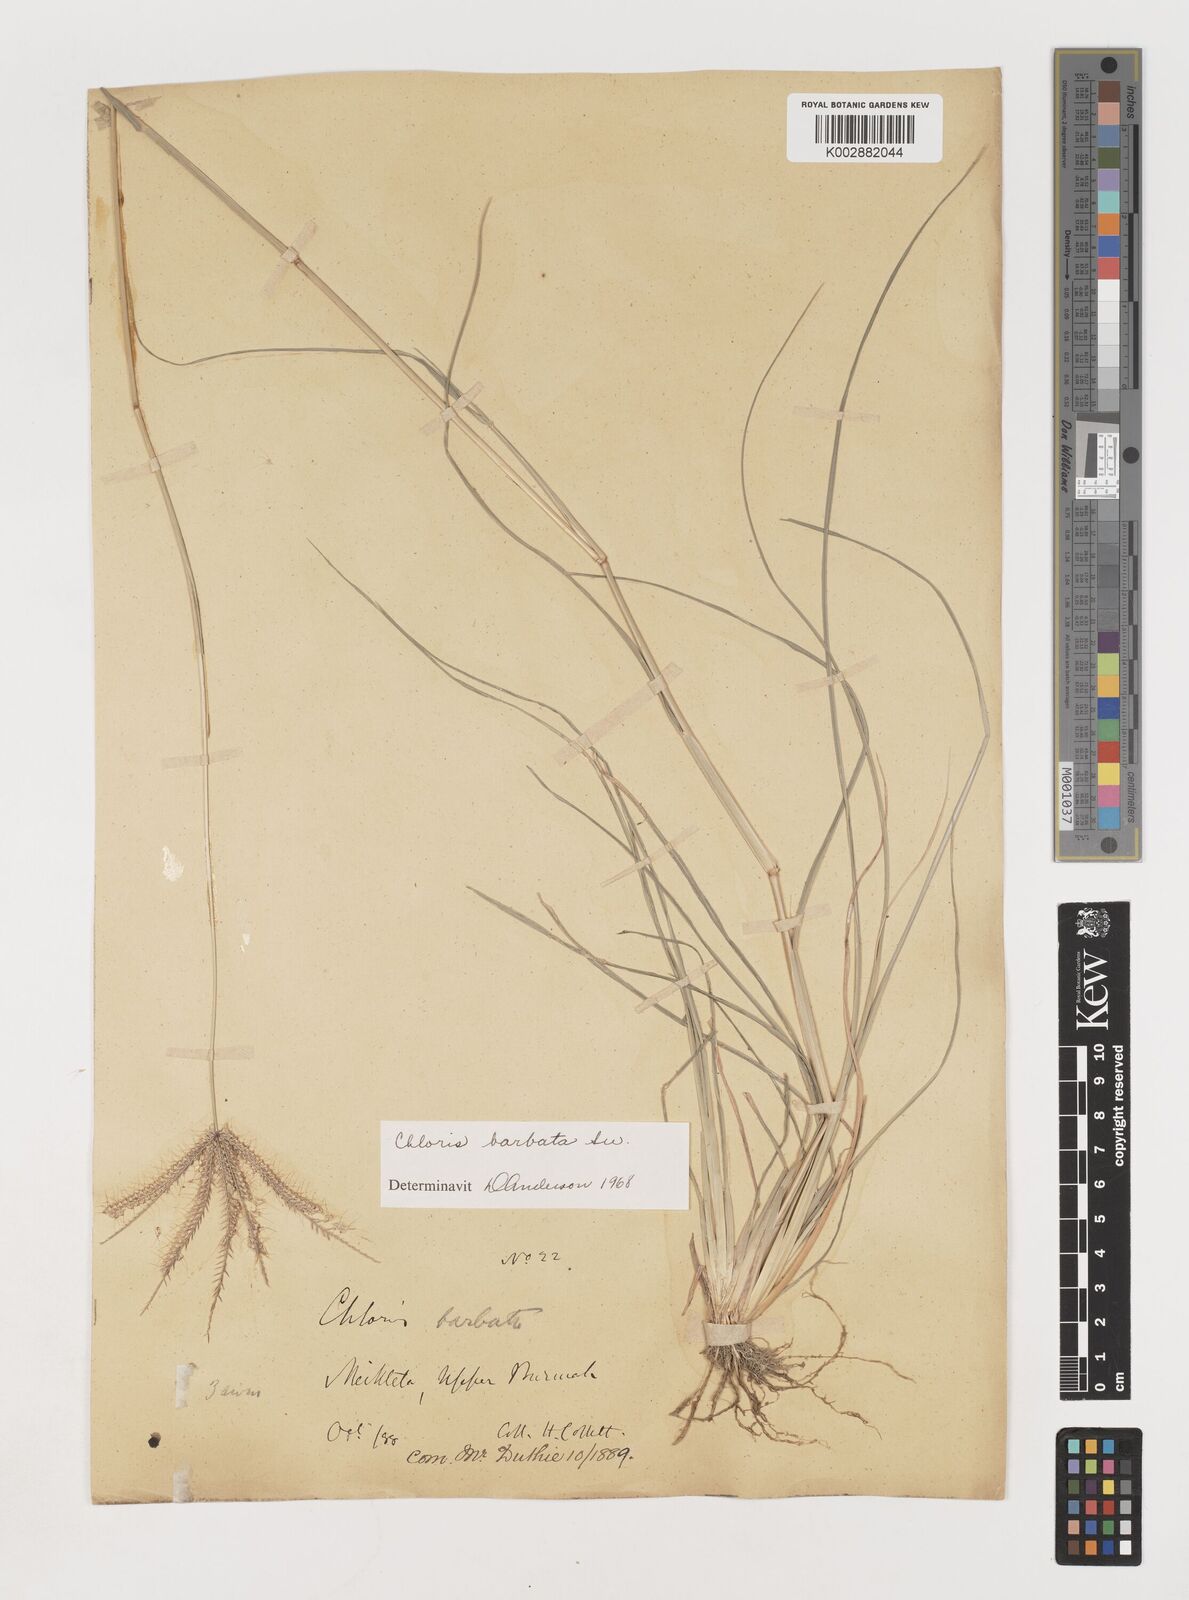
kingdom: Plantae
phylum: Tracheophyta
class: Liliopsida
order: Poales
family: Poaceae
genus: Chloris
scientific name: Chloris barbata
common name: Swollen fingergrass
